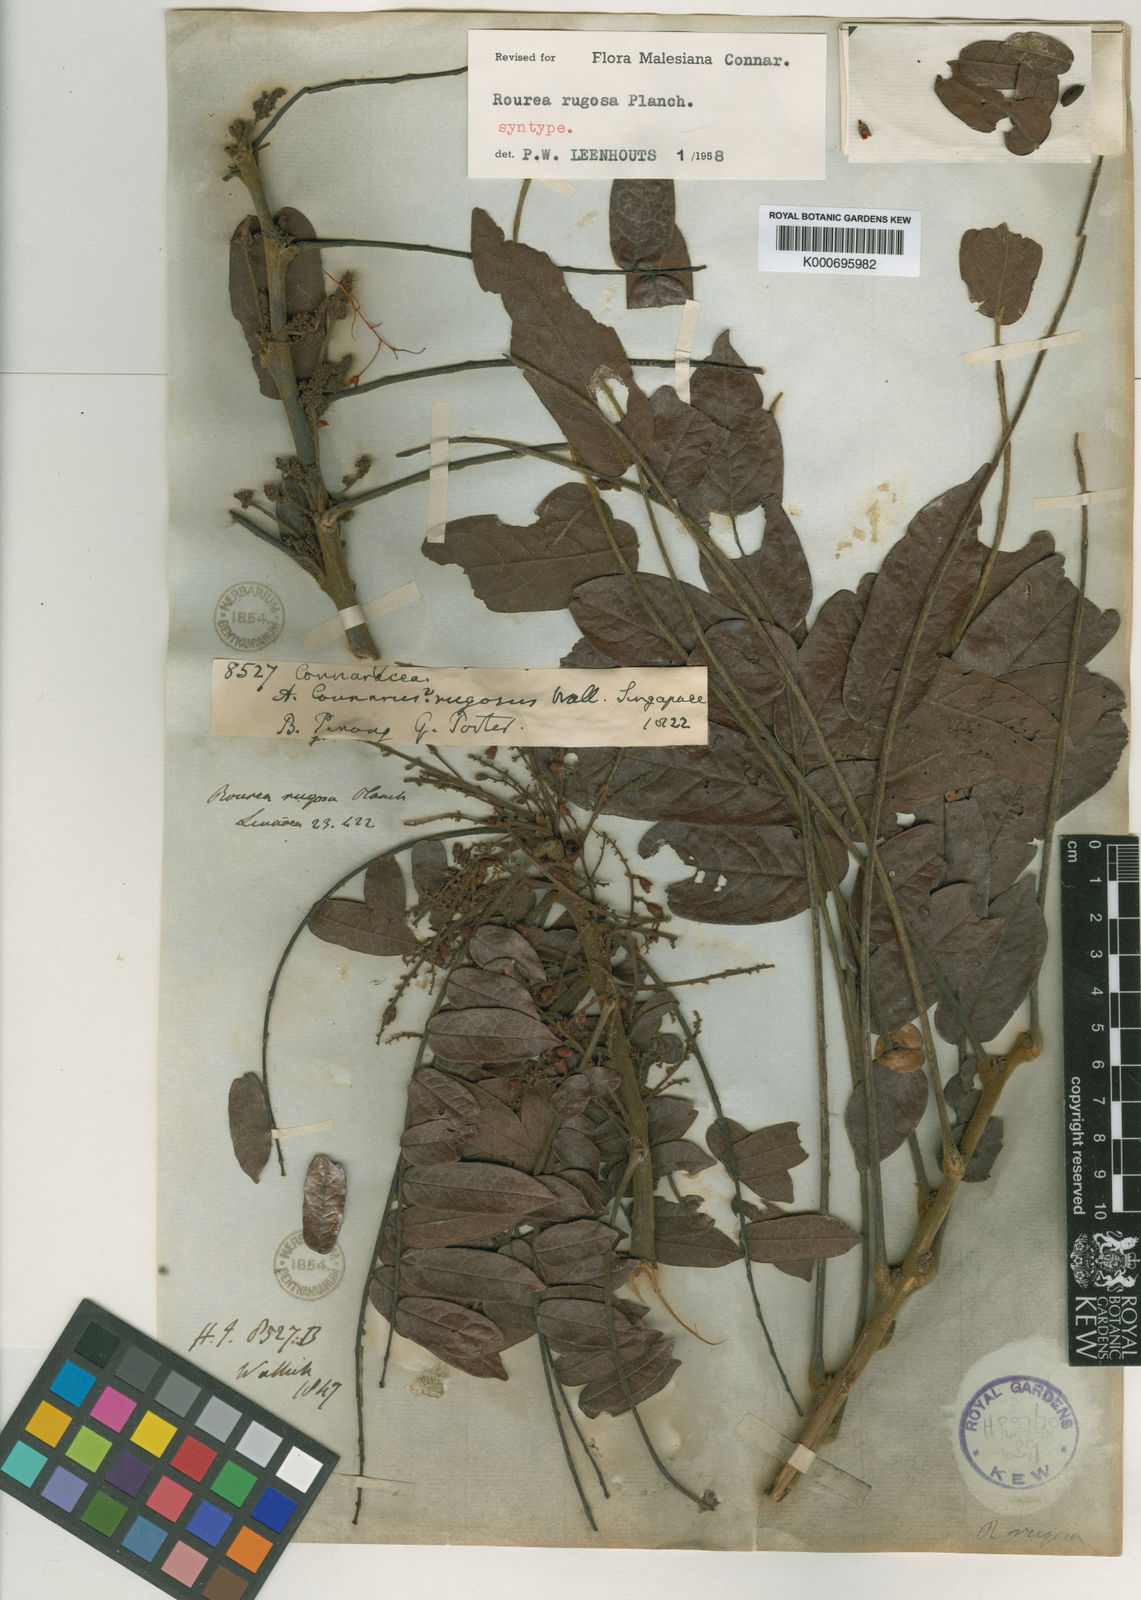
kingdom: Plantae
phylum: Tracheophyta
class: Magnoliopsida
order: Oxalidales
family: Connaraceae
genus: Rourea
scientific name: Rourea rugosa
